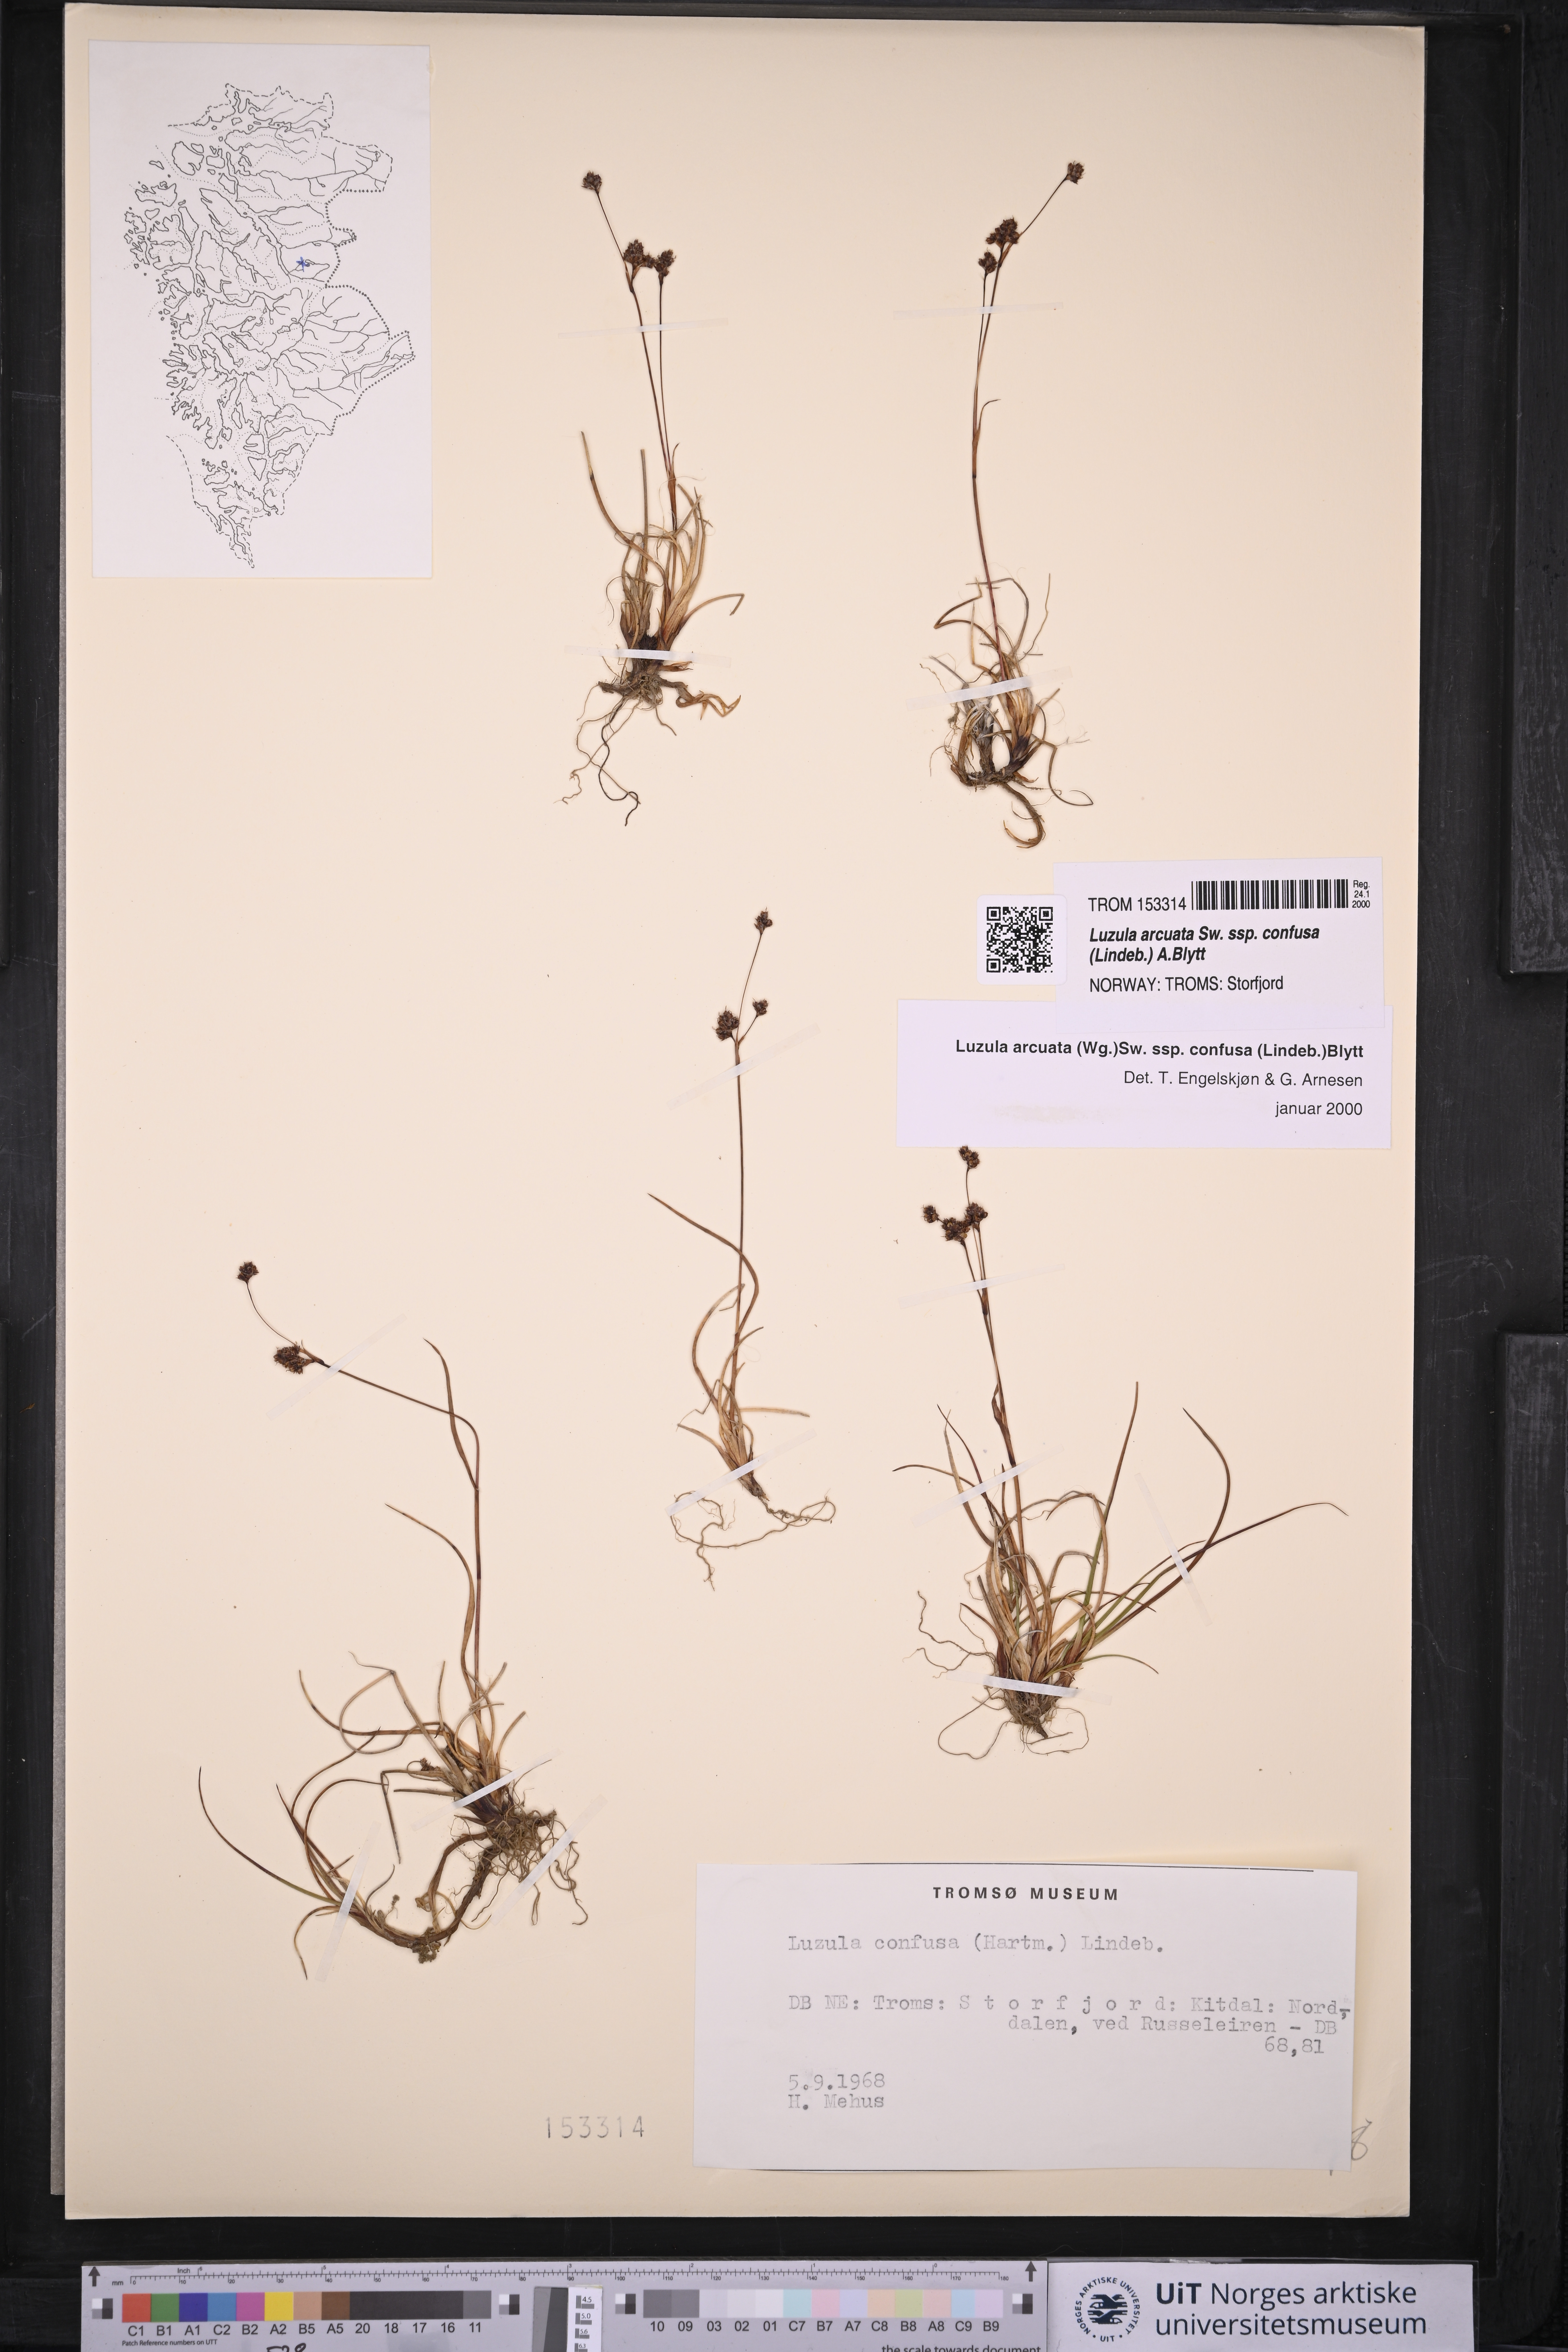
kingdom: Plantae
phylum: Tracheophyta
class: Liliopsida
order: Poales
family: Juncaceae
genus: Luzula
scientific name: Luzula confusa
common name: Northern wood rush
